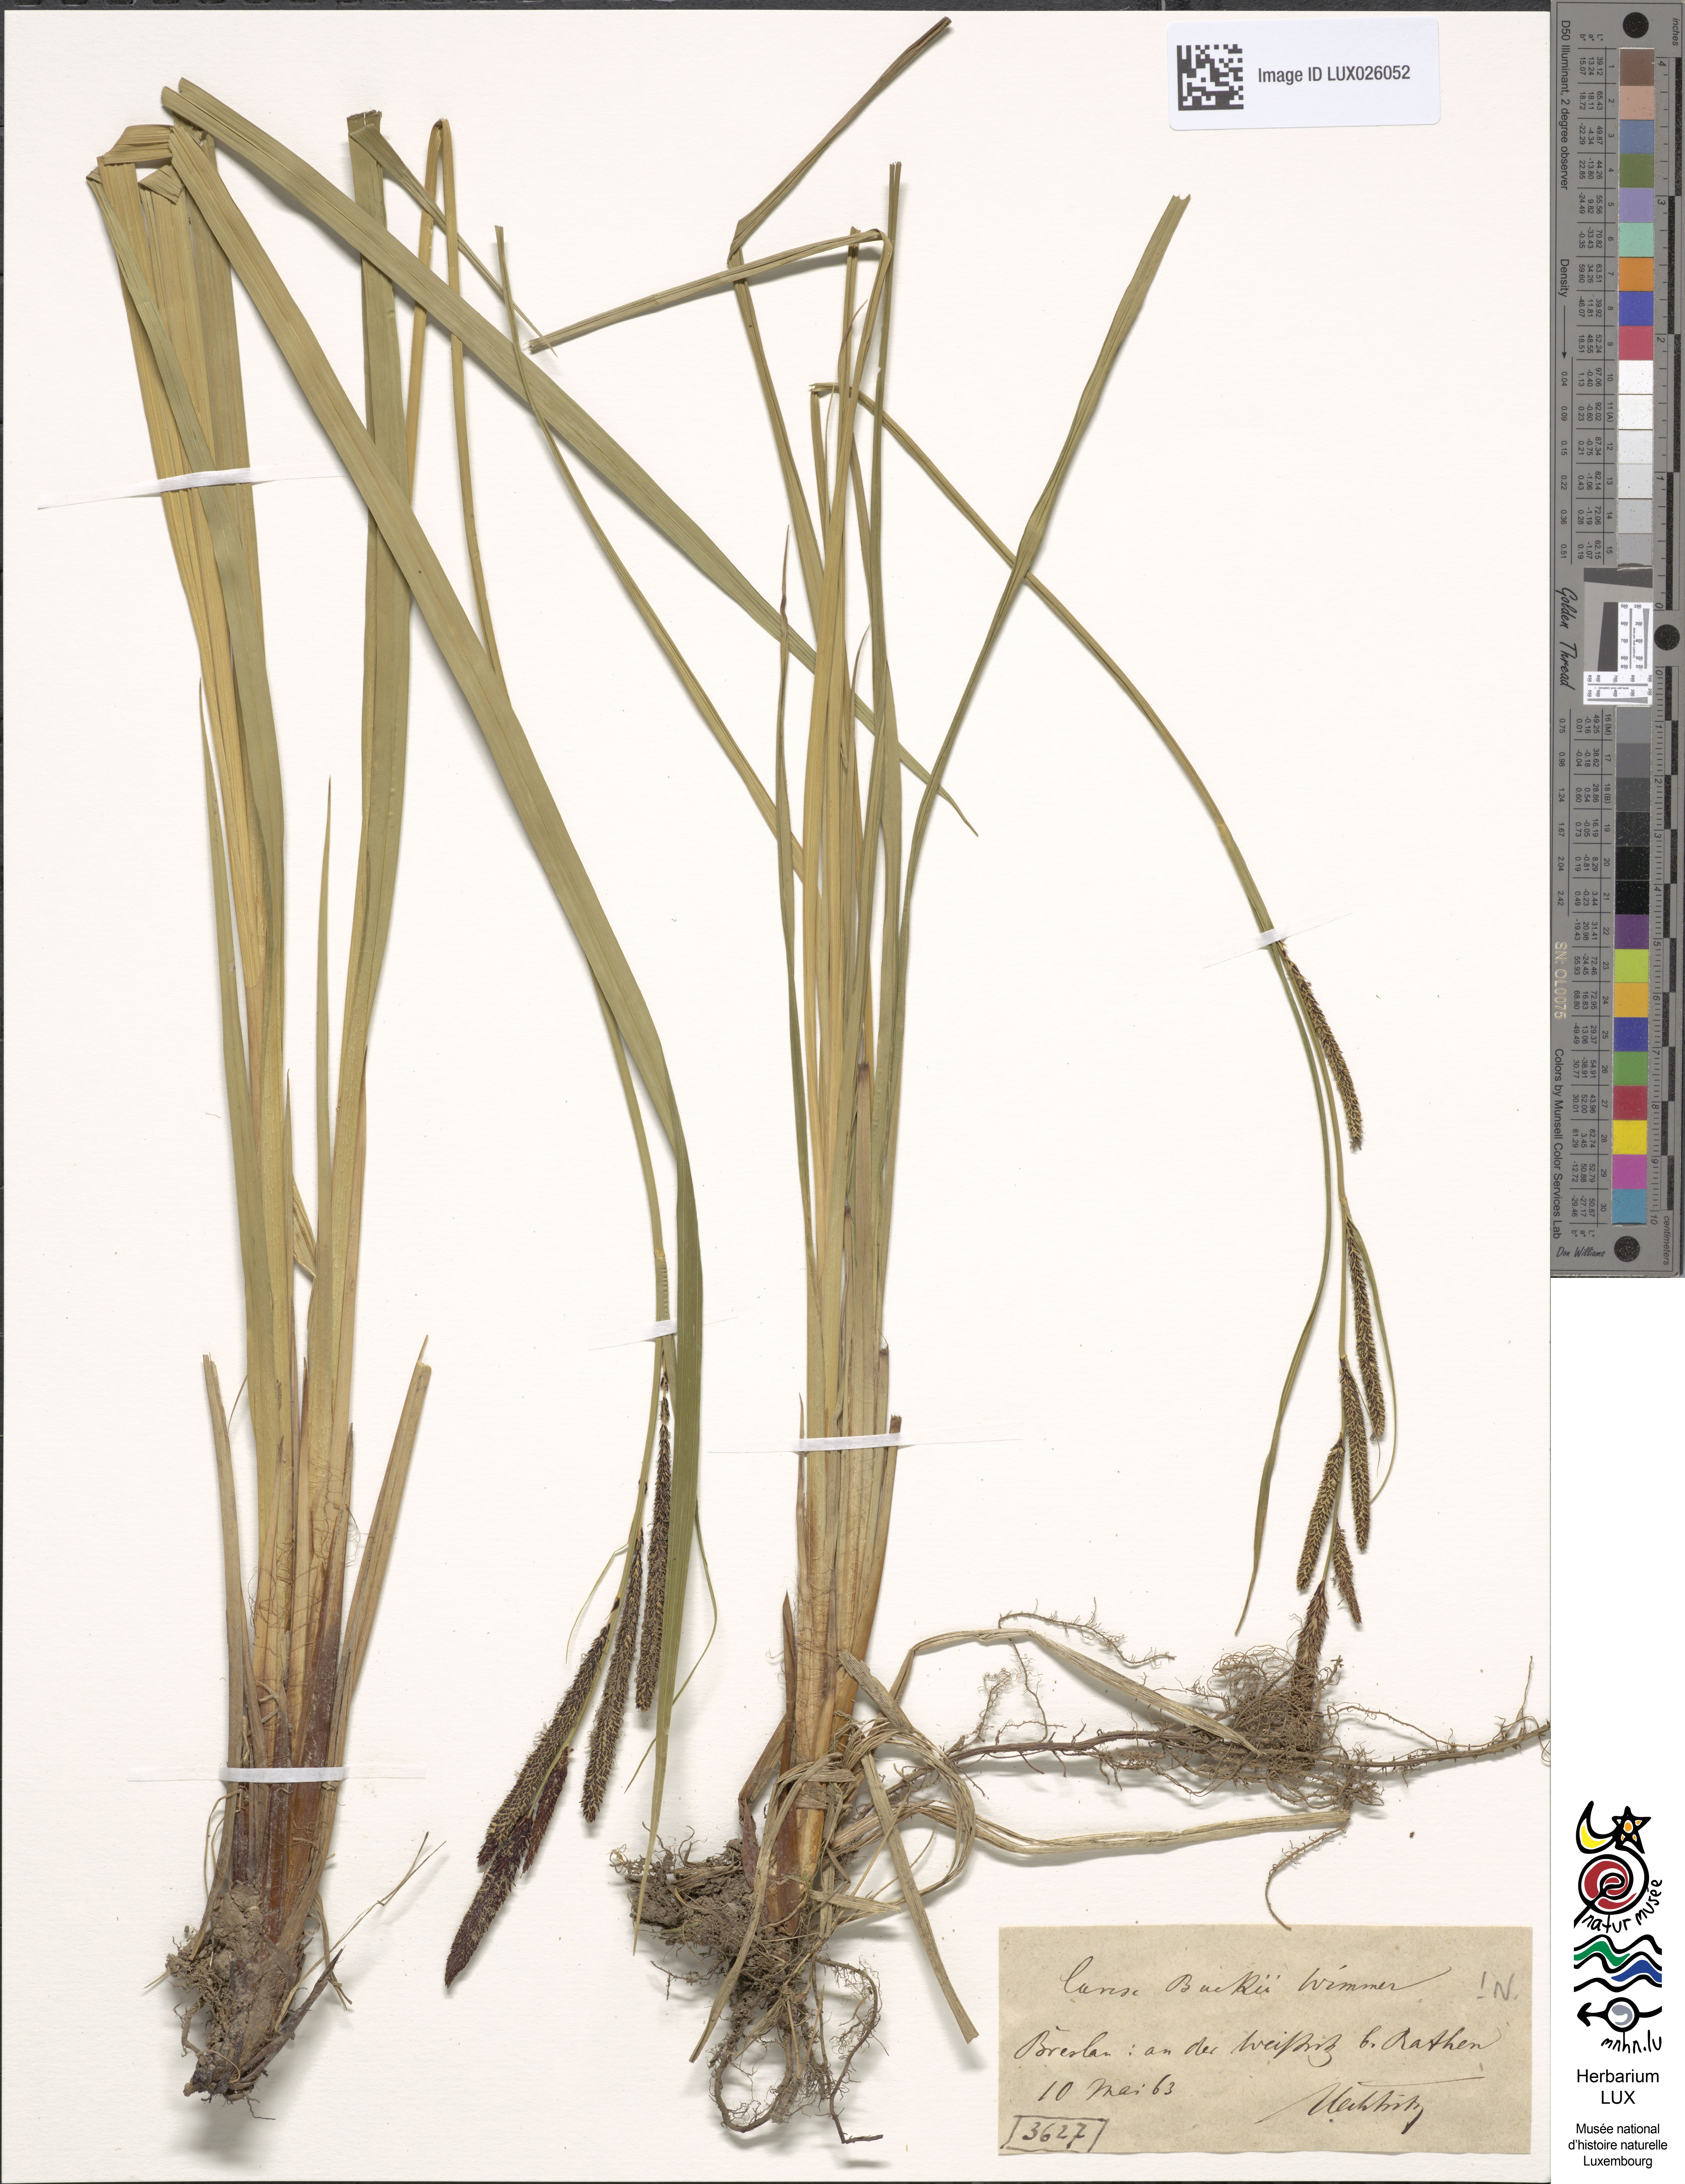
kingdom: Plantae
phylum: Tracheophyta
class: Liliopsida
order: Poales
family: Cyperaceae
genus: Carex
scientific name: Carex buekii
